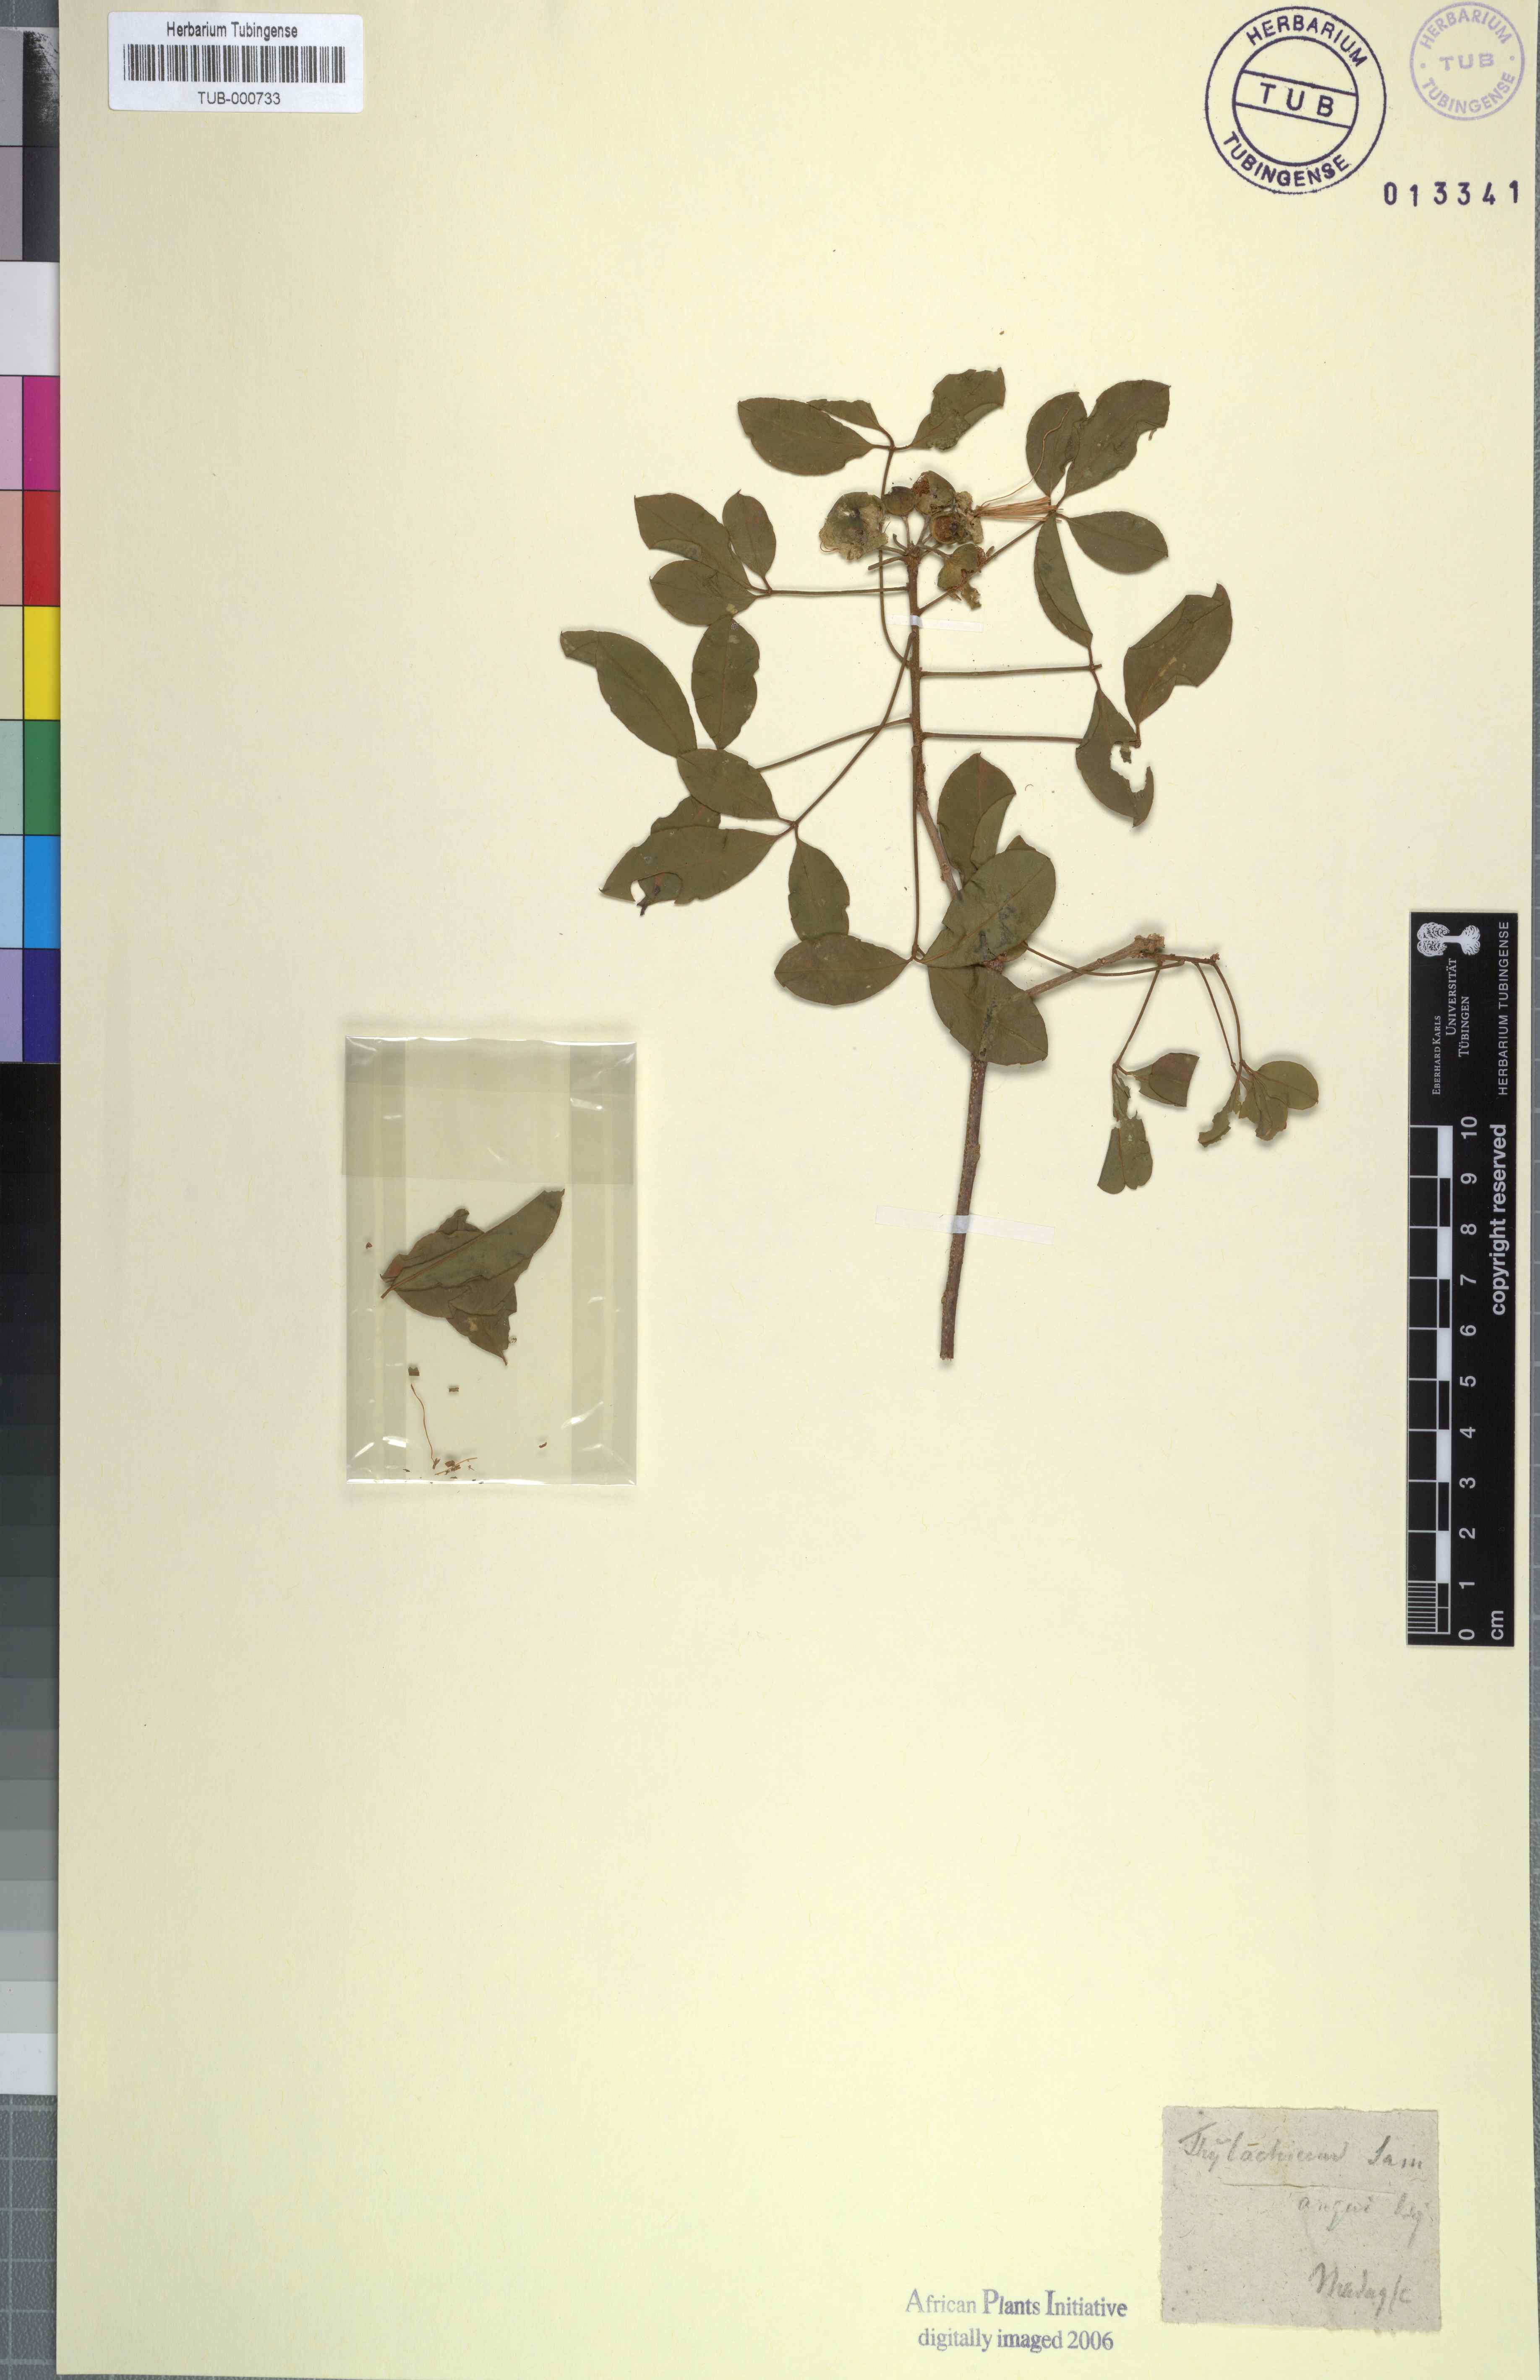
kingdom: Plantae
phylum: Tracheophyta
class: Magnoliopsida
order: Brassicales
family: Capparaceae
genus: Thilachium
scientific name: Thilachium sumangui
